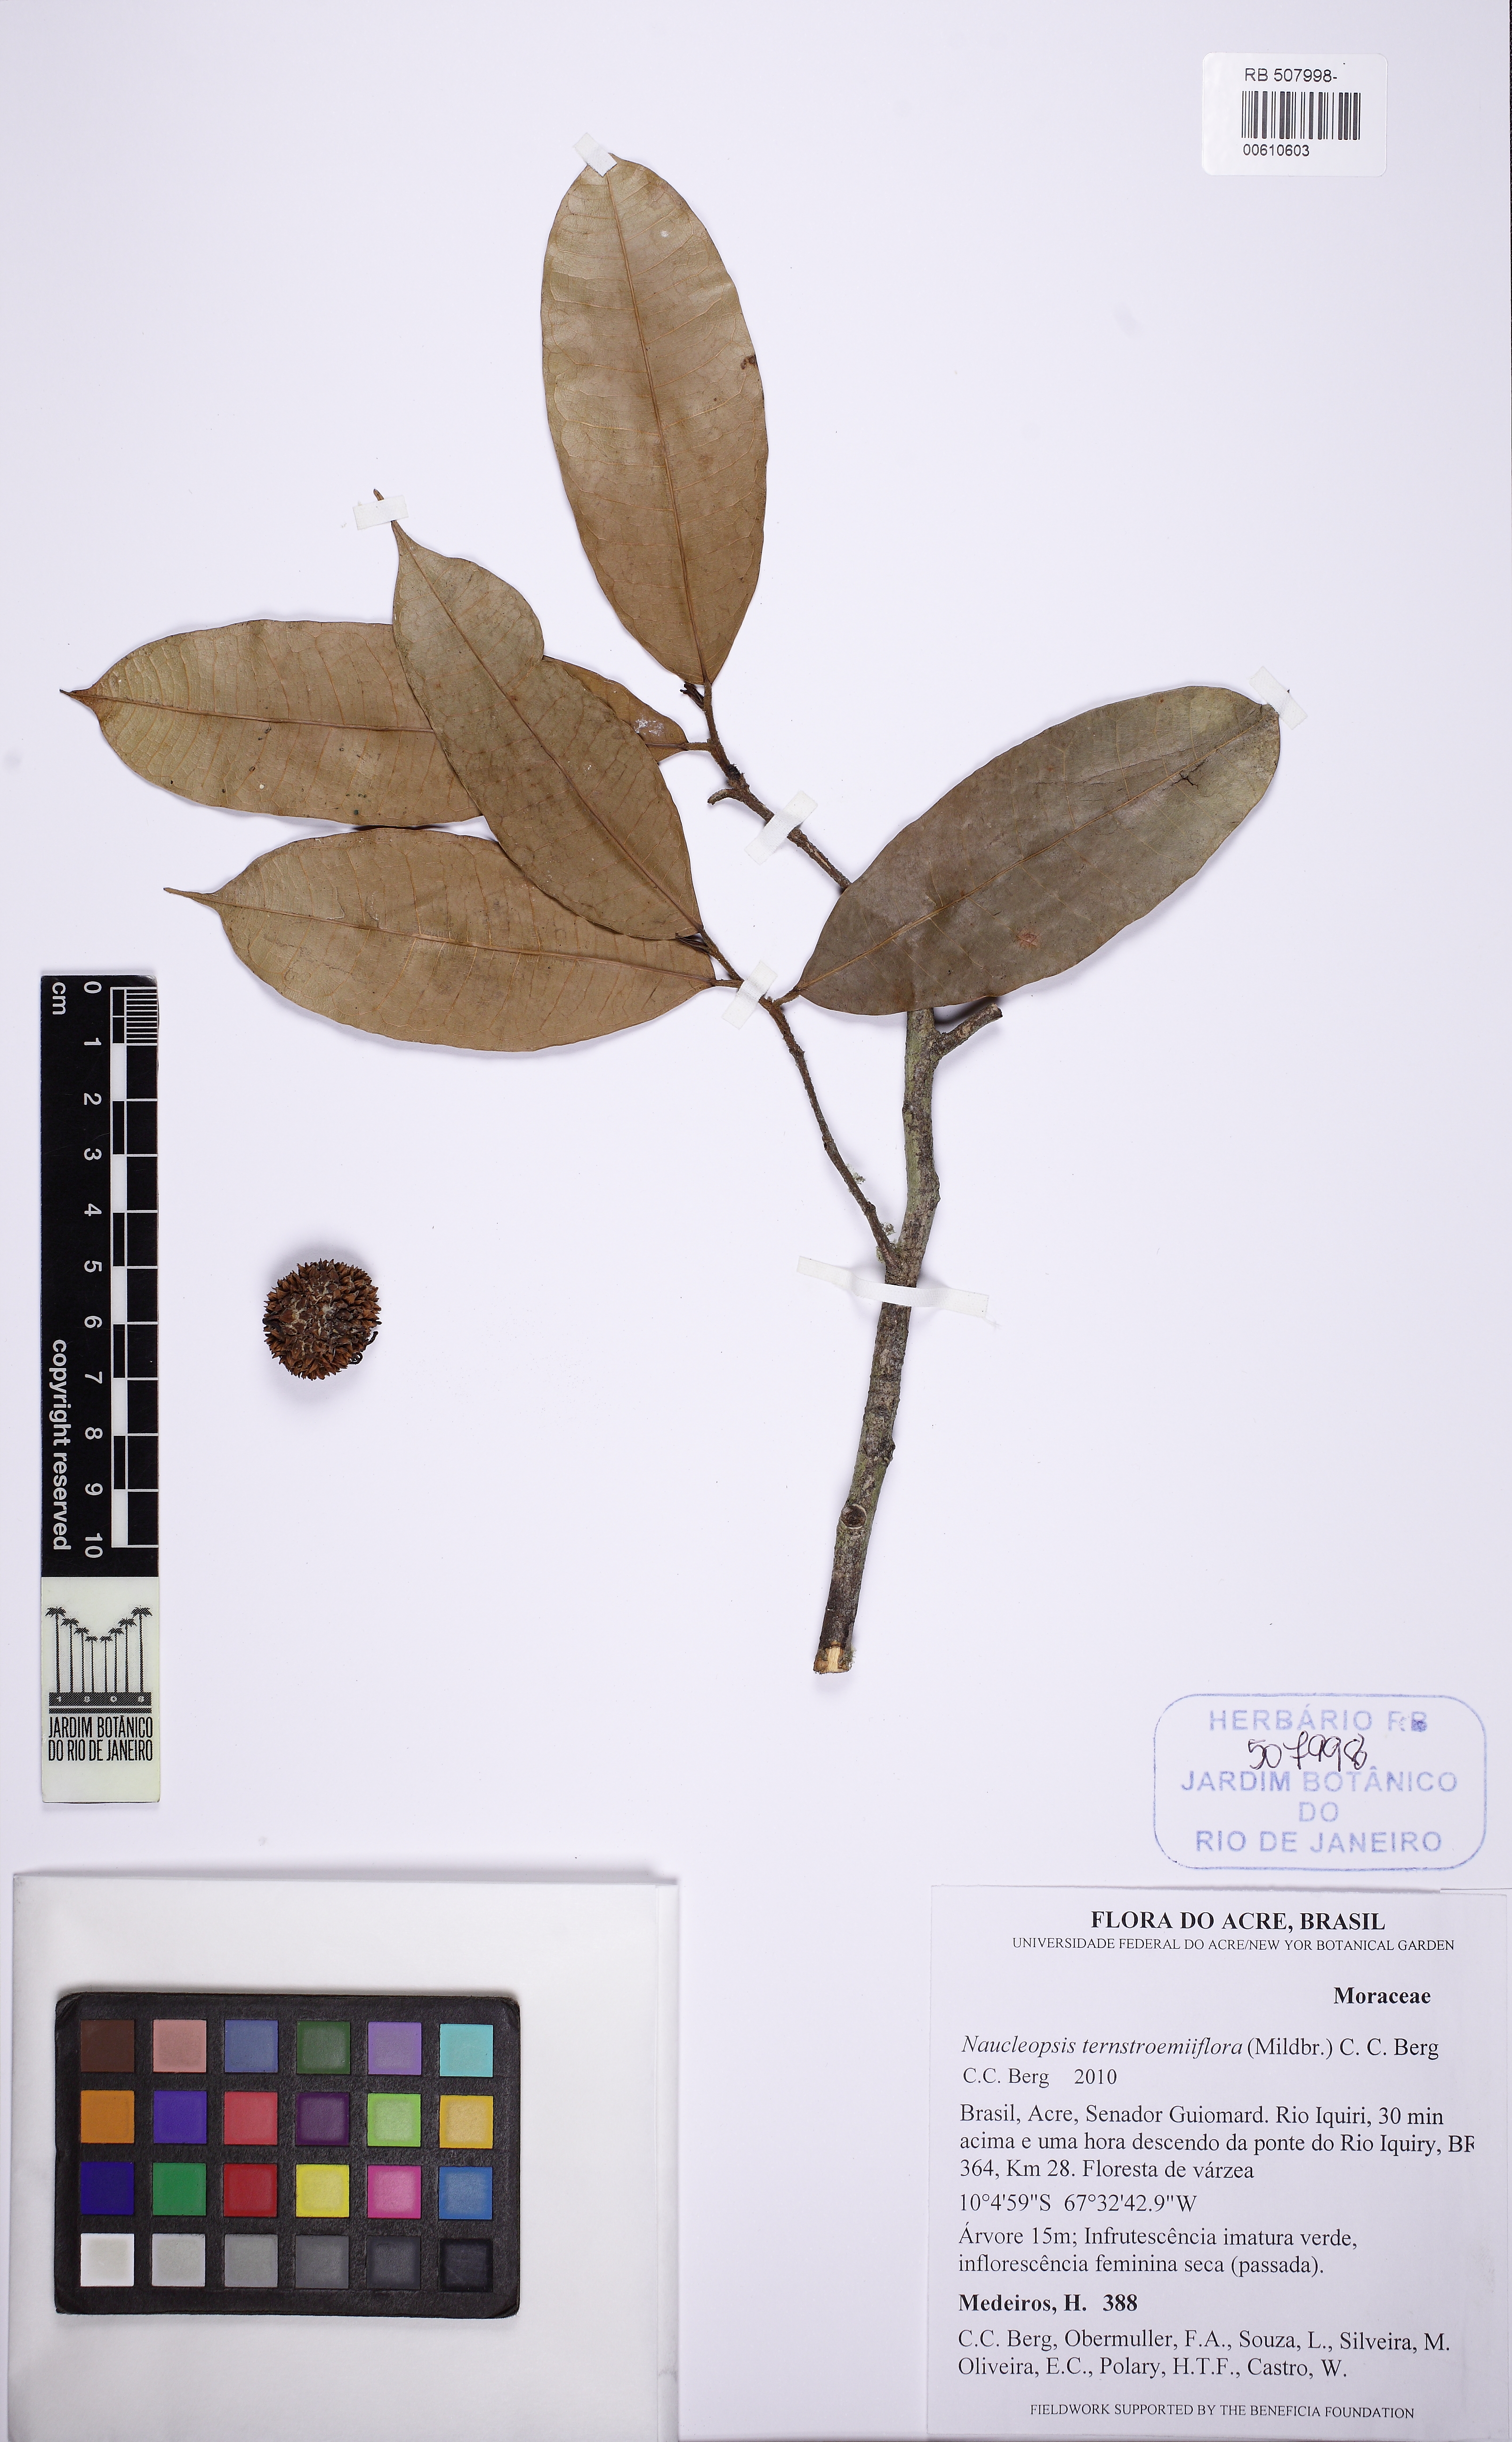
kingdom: Plantae
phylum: Tracheophyta
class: Magnoliopsida
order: Rosales
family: Moraceae
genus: Naucleopsis
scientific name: Naucleopsis ternstroemiiflora
